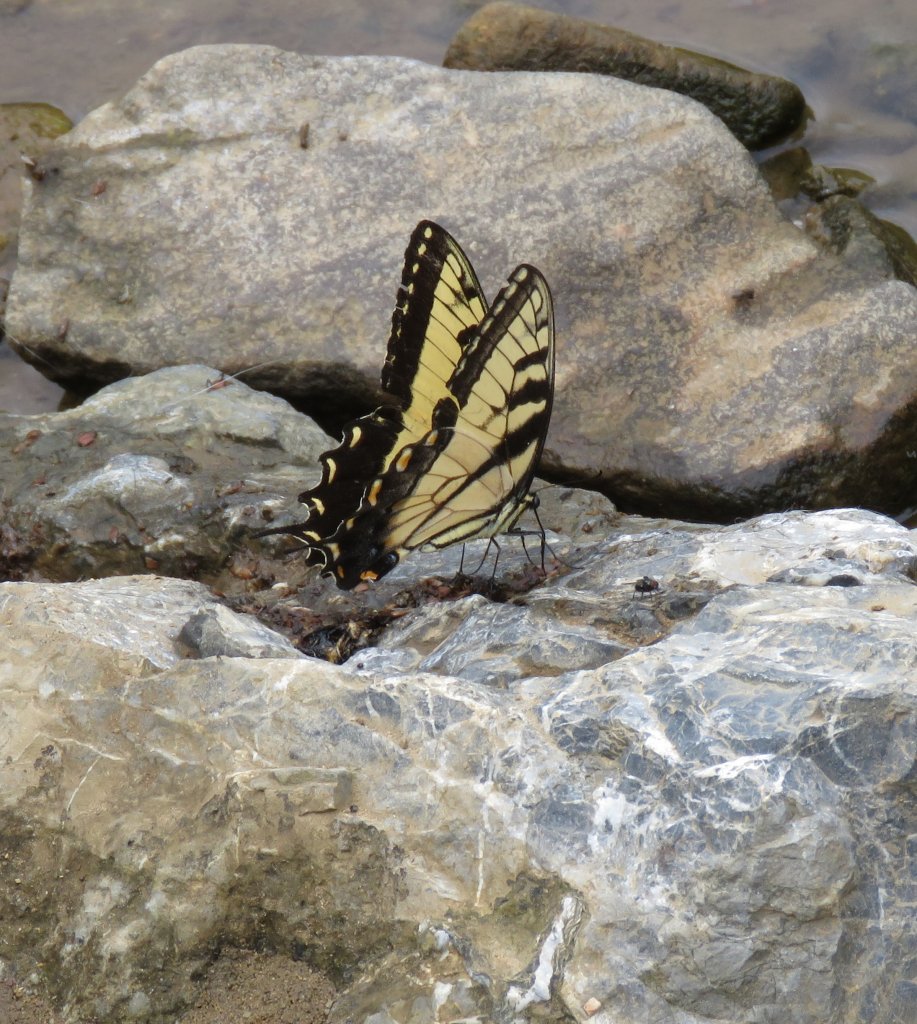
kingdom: Animalia
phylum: Arthropoda
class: Insecta
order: Lepidoptera
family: Papilionidae
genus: Pterourus
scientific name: Pterourus glaucus
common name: Eastern Tiger Swallowtail
